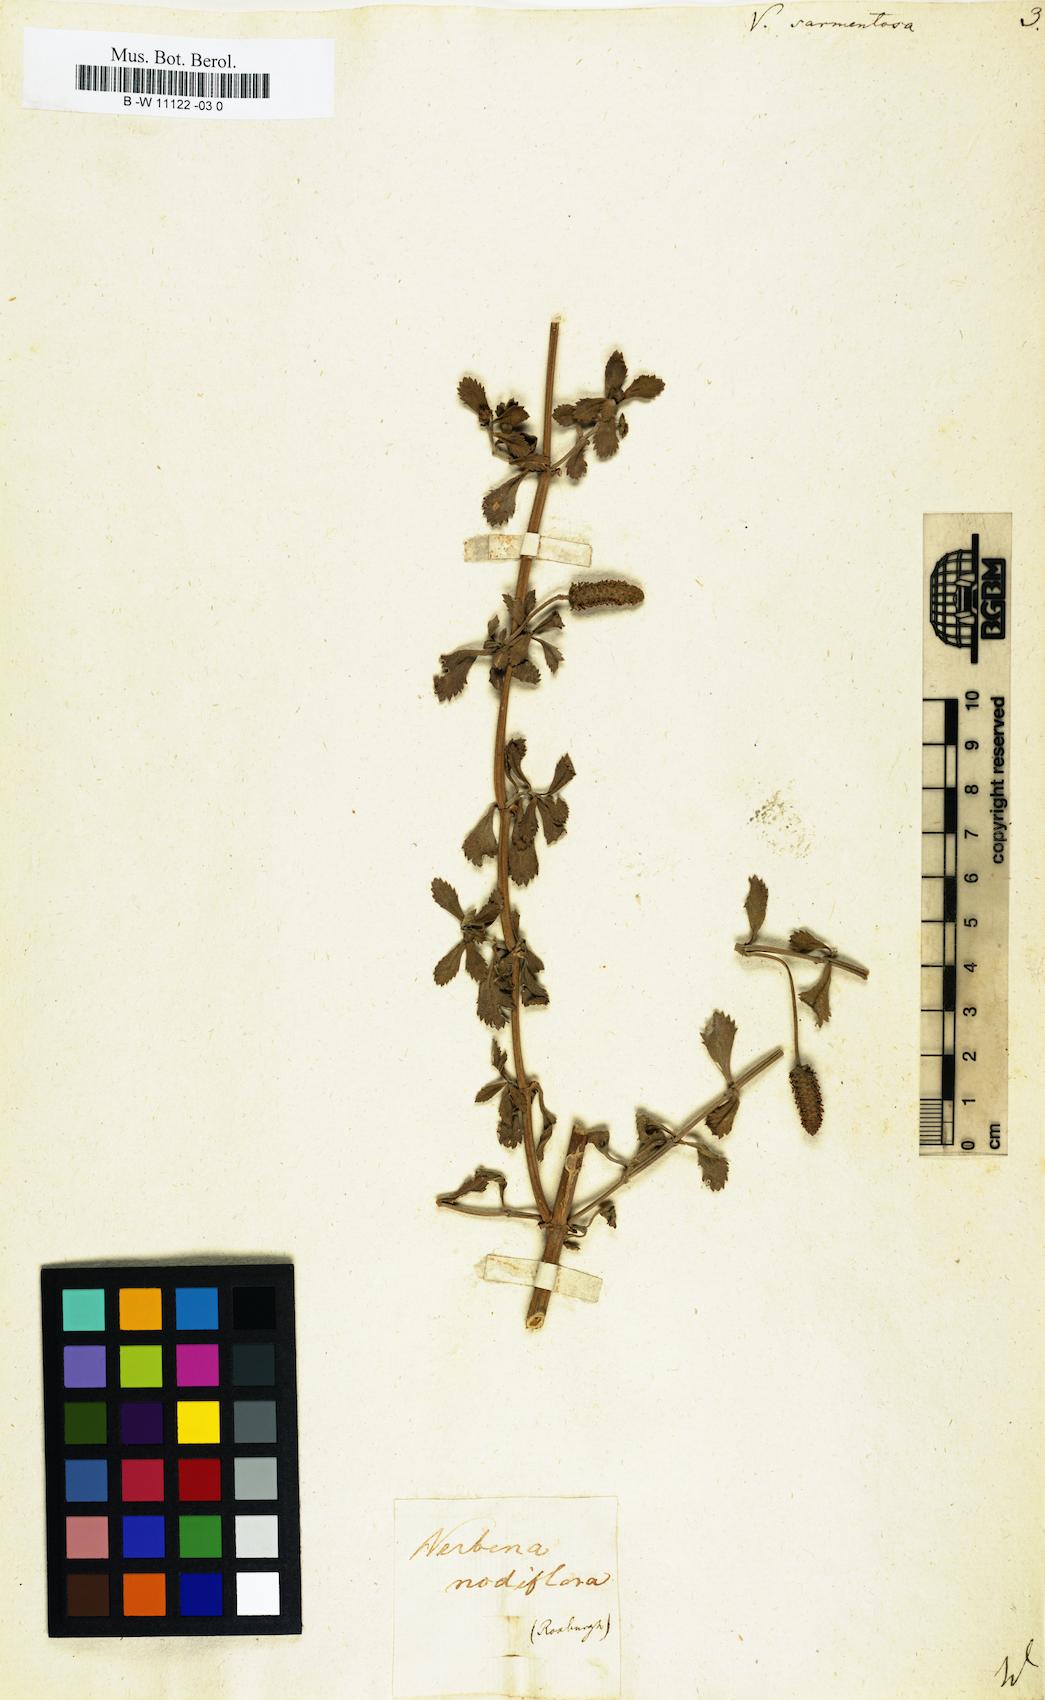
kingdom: Plantae
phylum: Tracheophyta
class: Magnoliopsida
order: Lamiales
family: Verbenaceae
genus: Phyla
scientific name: Phyla nodiflora
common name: Frogfruit
